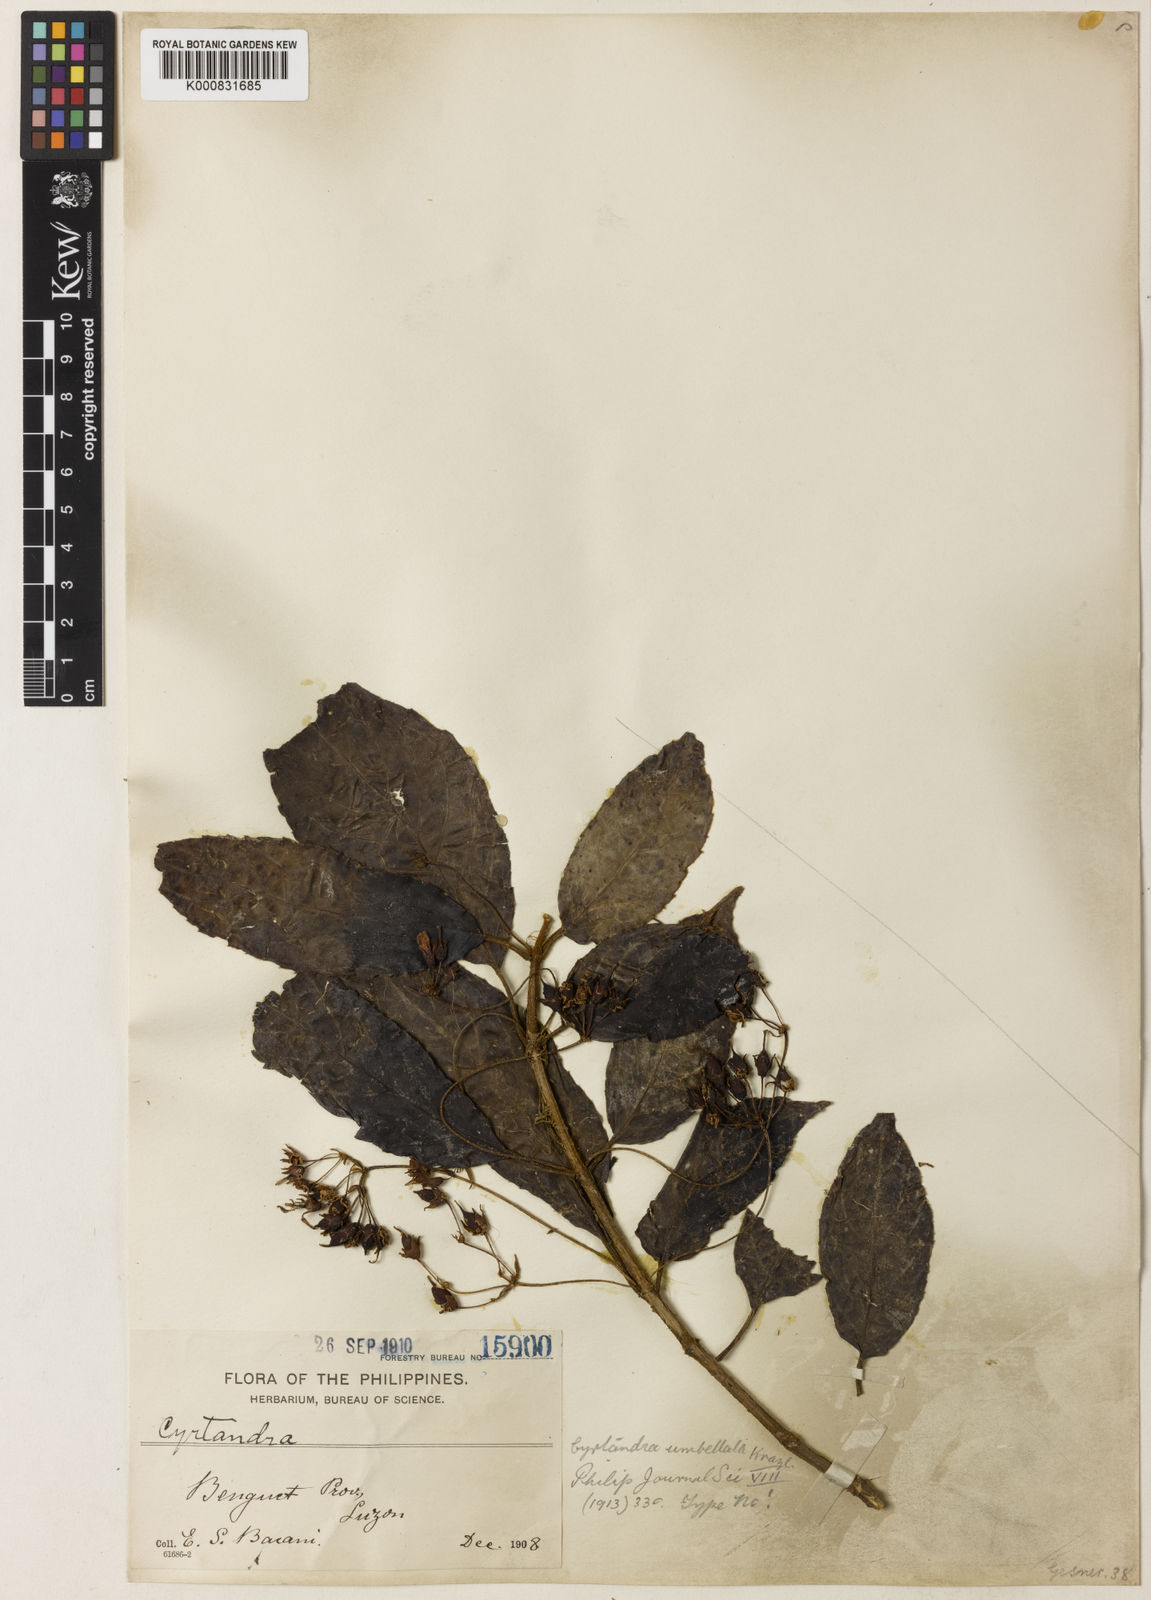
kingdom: Plantae
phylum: Tracheophyta
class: Magnoliopsida
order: Lamiales
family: Gesneriaceae
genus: Cyrtandra
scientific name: Cyrtandra bacanii
